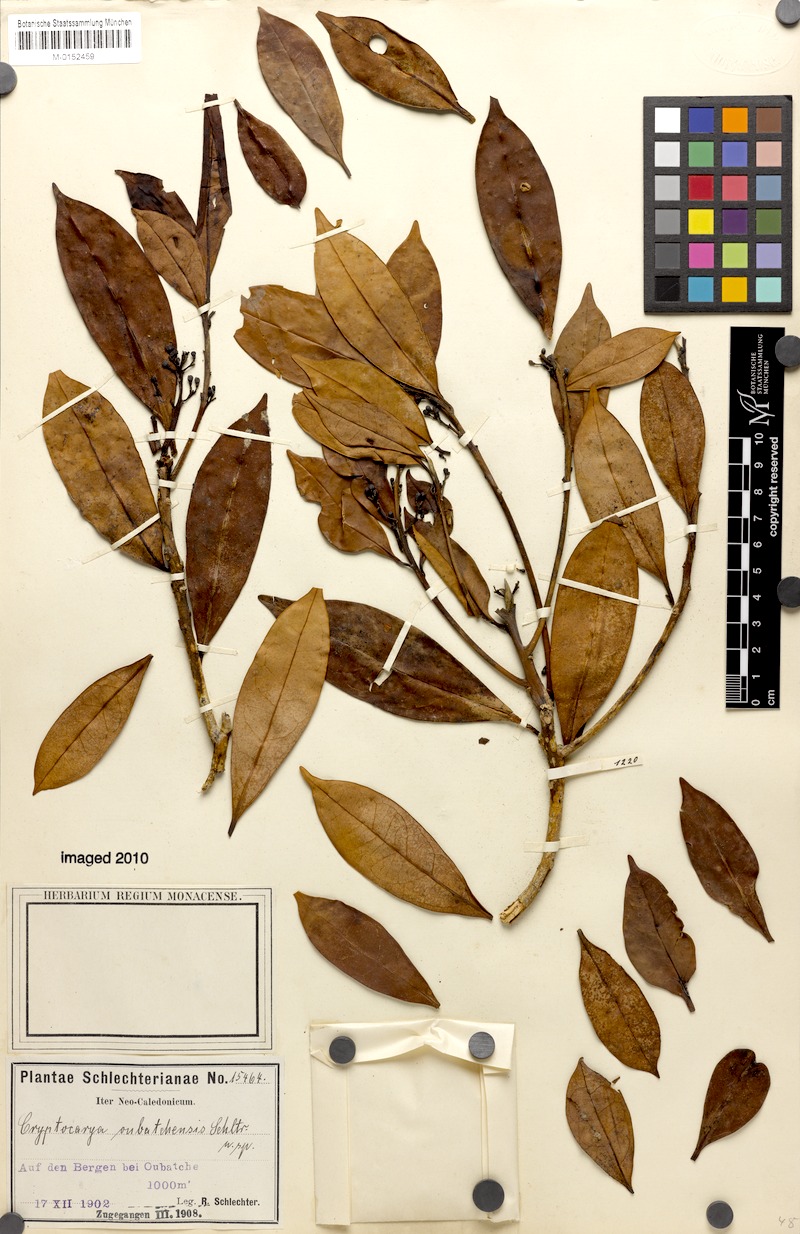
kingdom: Plantae
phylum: Tracheophyta
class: Magnoliopsida
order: Laurales
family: Lauraceae
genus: Cryptocarya
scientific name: Cryptocarya oubatchensis
